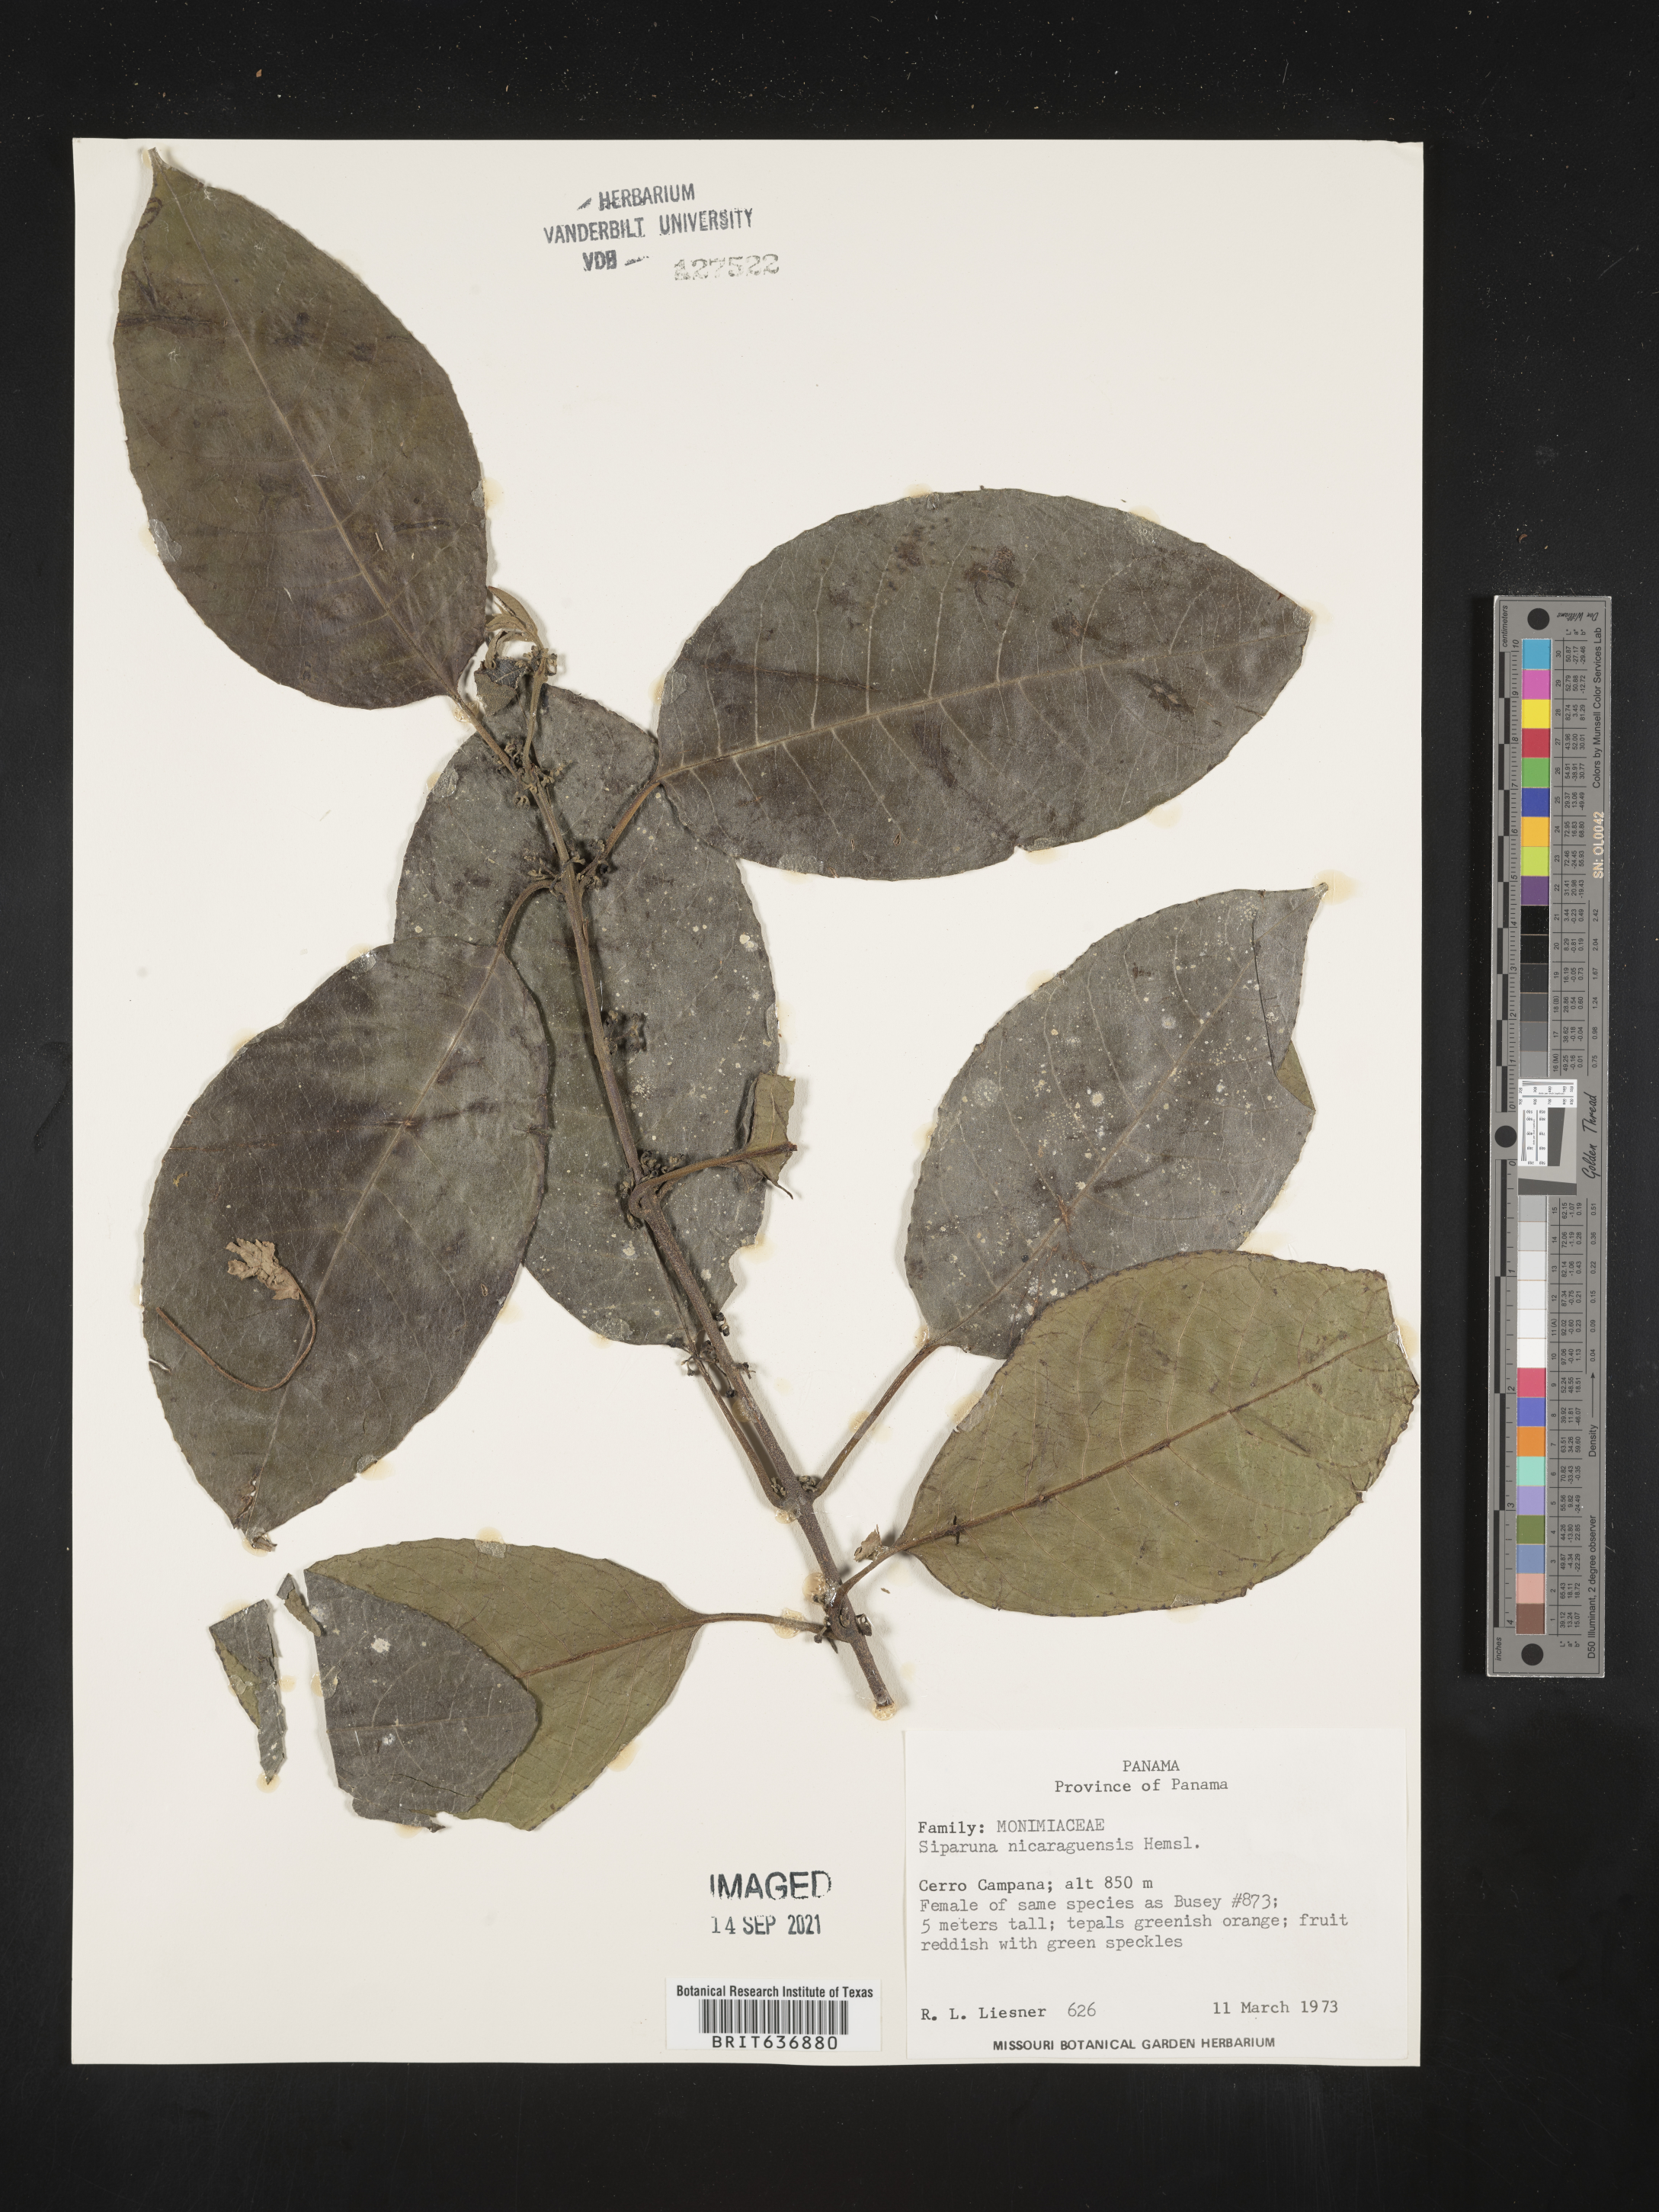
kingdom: Plantae
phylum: Tracheophyta
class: Magnoliopsida
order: Laurales
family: Siparunaceae
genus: Siparuna
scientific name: Siparuna
